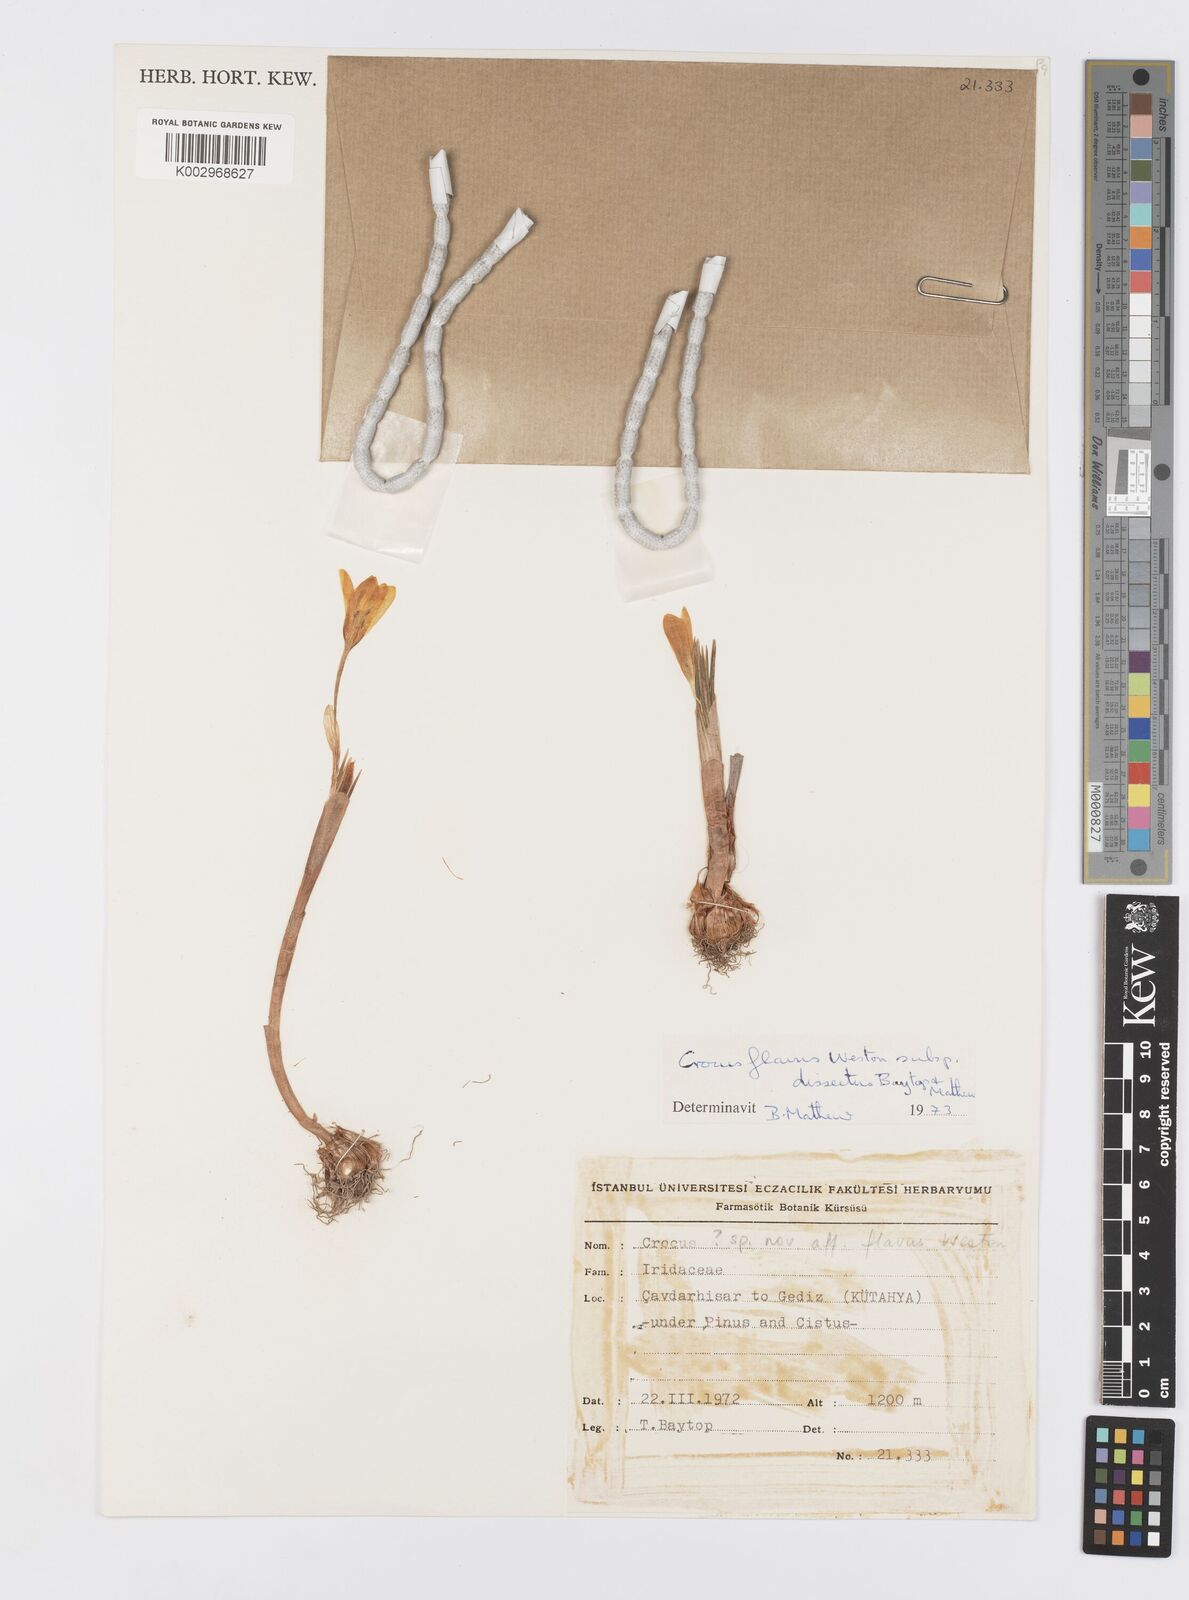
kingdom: Plantae
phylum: Tracheophyta
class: Liliopsida
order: Asparagales
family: Iridaceae
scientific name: Iridaceae
